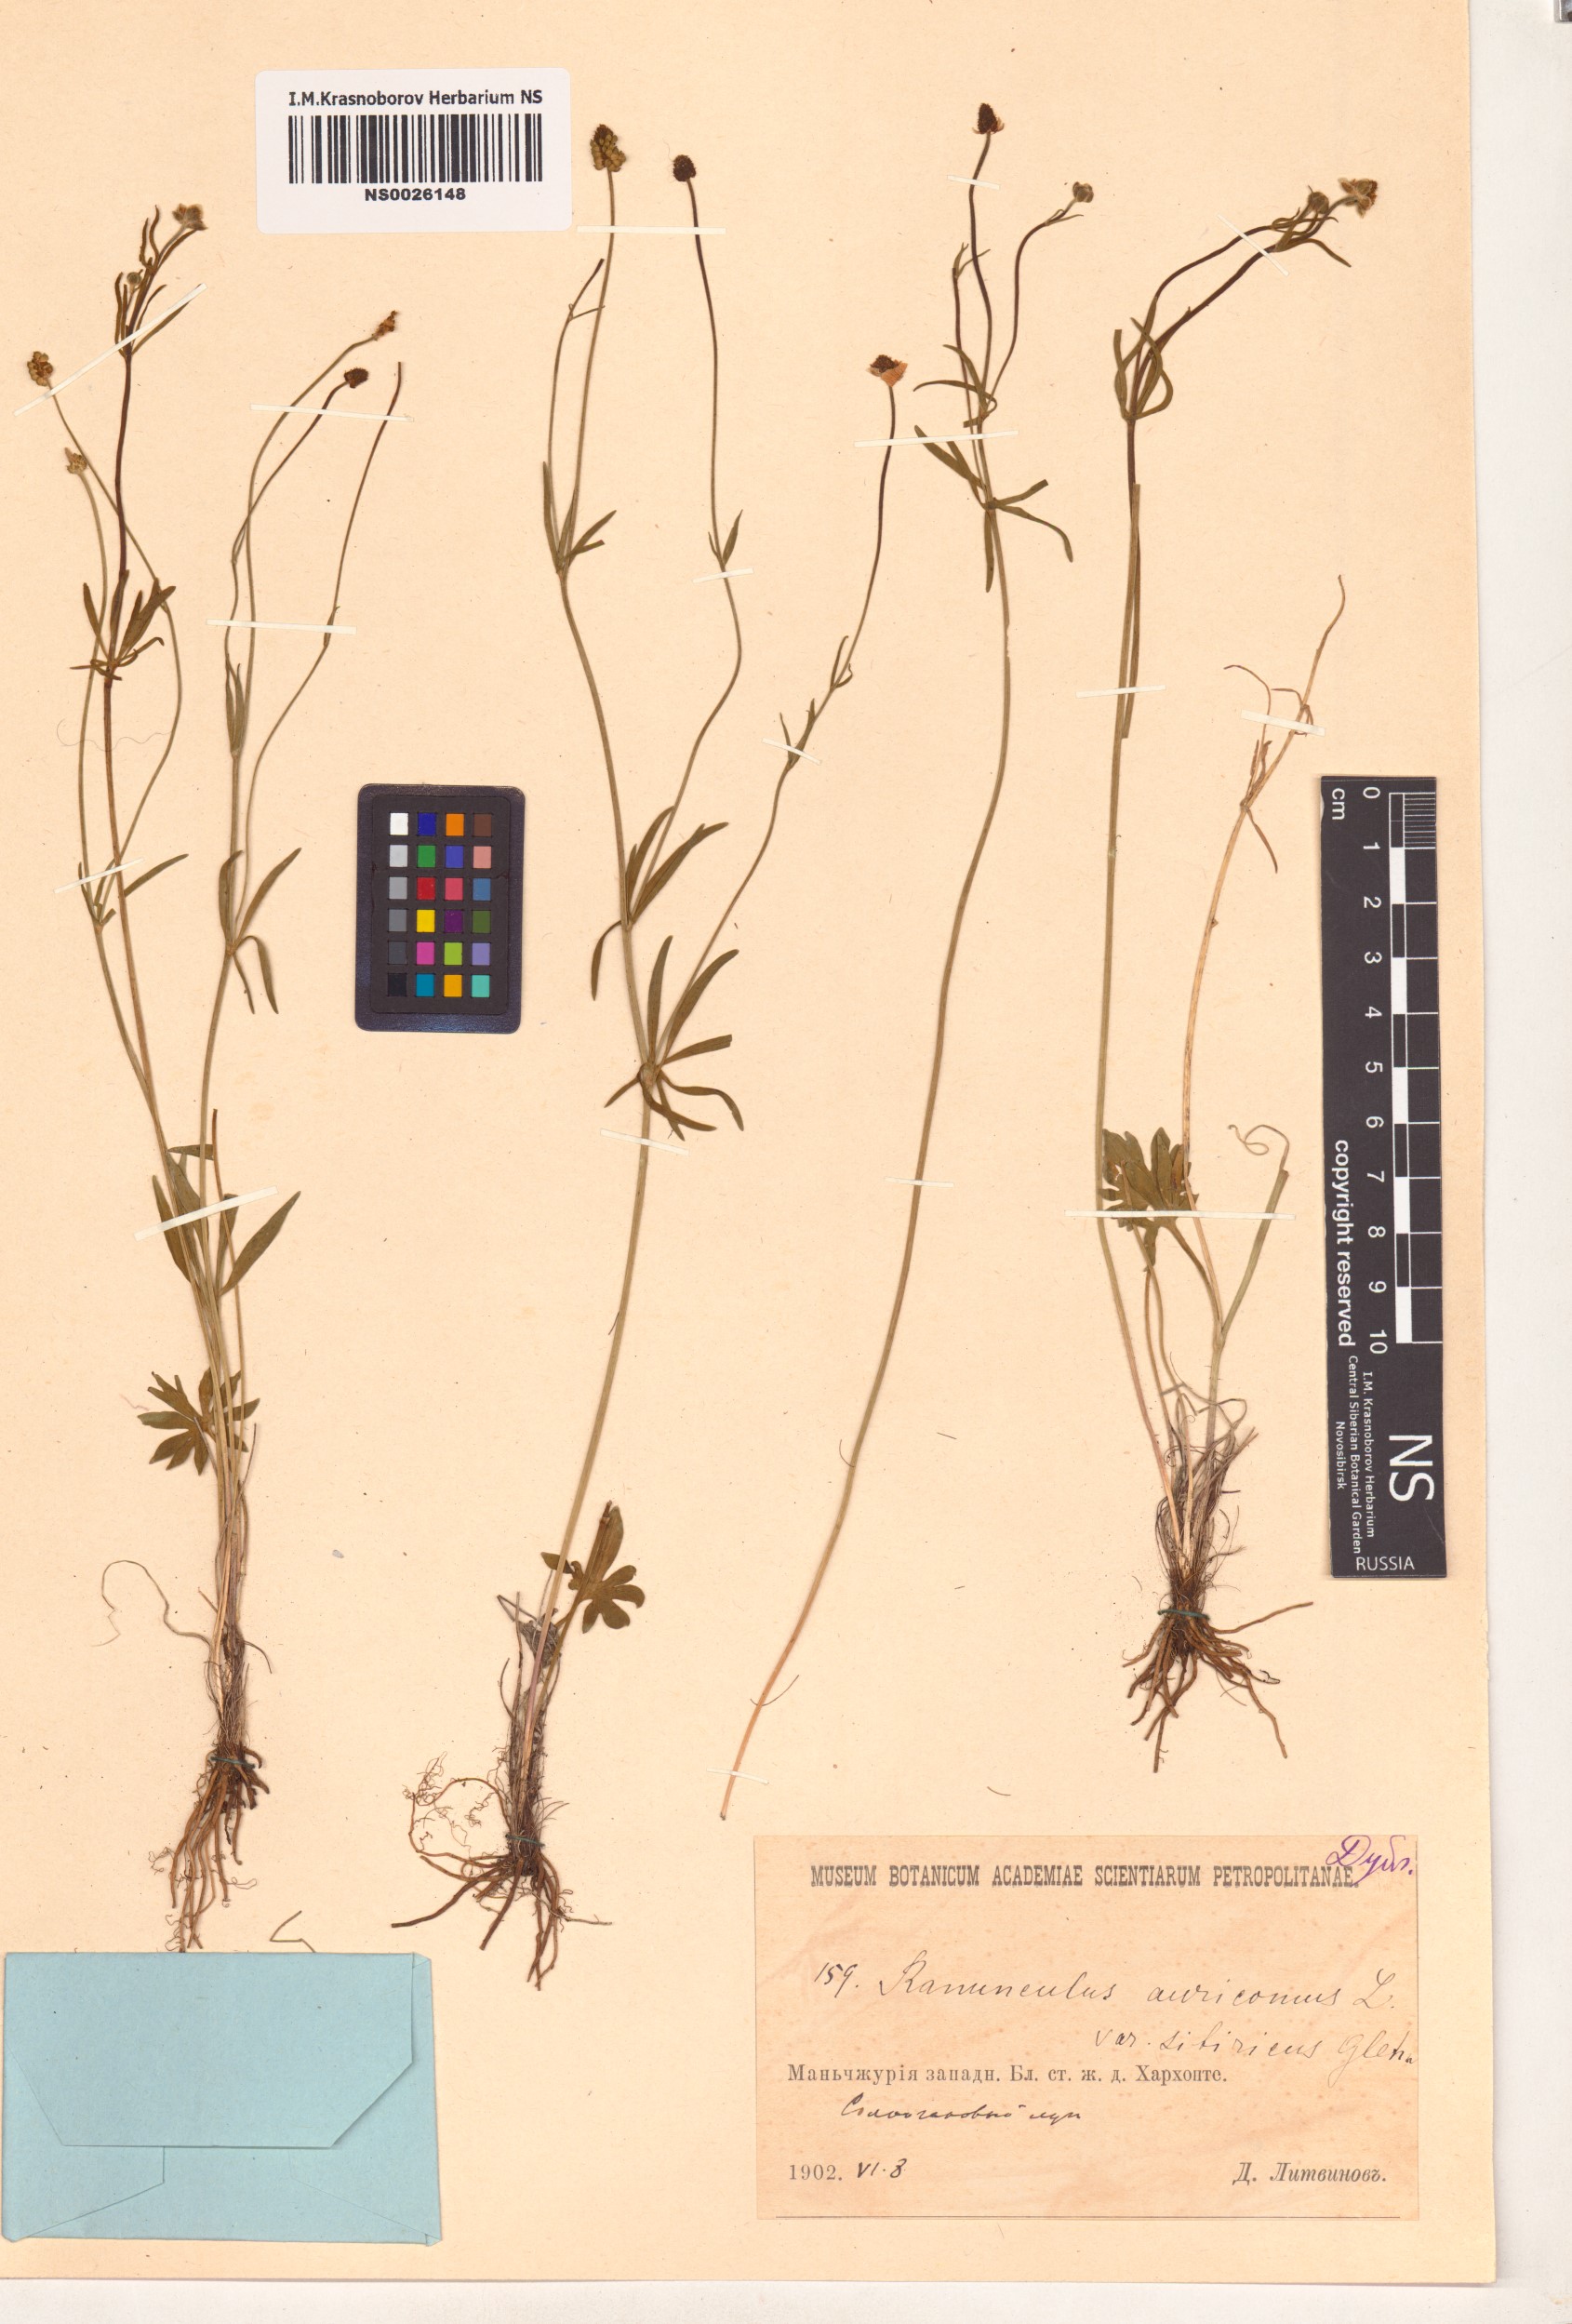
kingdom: Plantae
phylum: Tracheophyta
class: Magnoliopsida
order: Ranunculales
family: Ranunculaceae
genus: Ranunculus
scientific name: Ranunculus monophyllus
